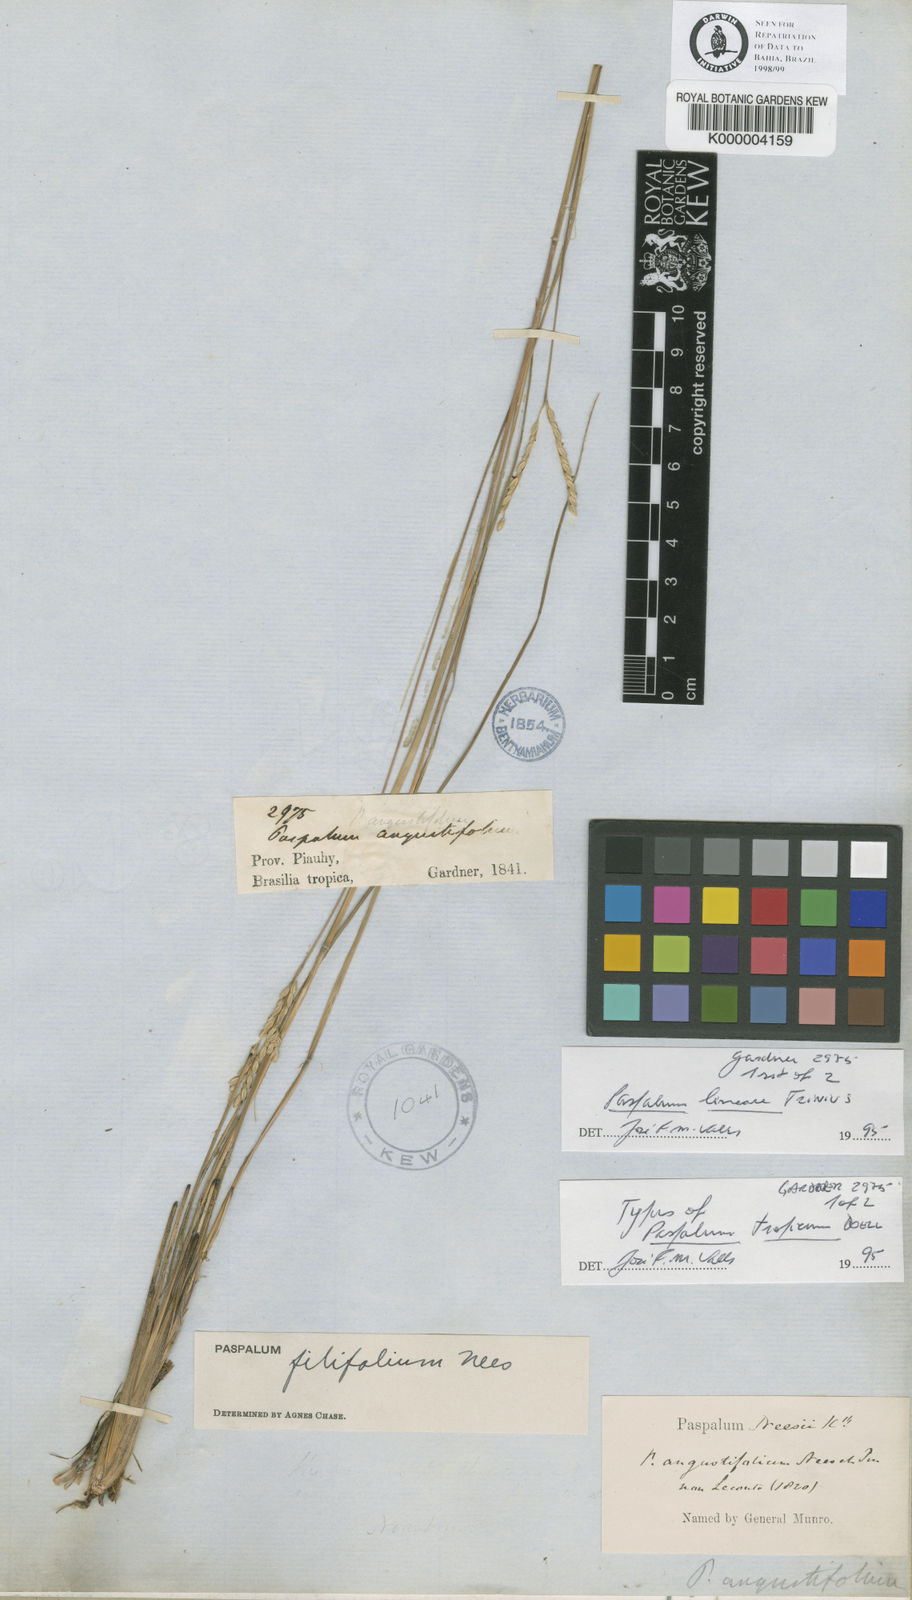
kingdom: Plantae
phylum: Tracheophyta
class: Liliopsida
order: Poales
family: Poaceae
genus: Paspalum
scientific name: Paspalum lineare
